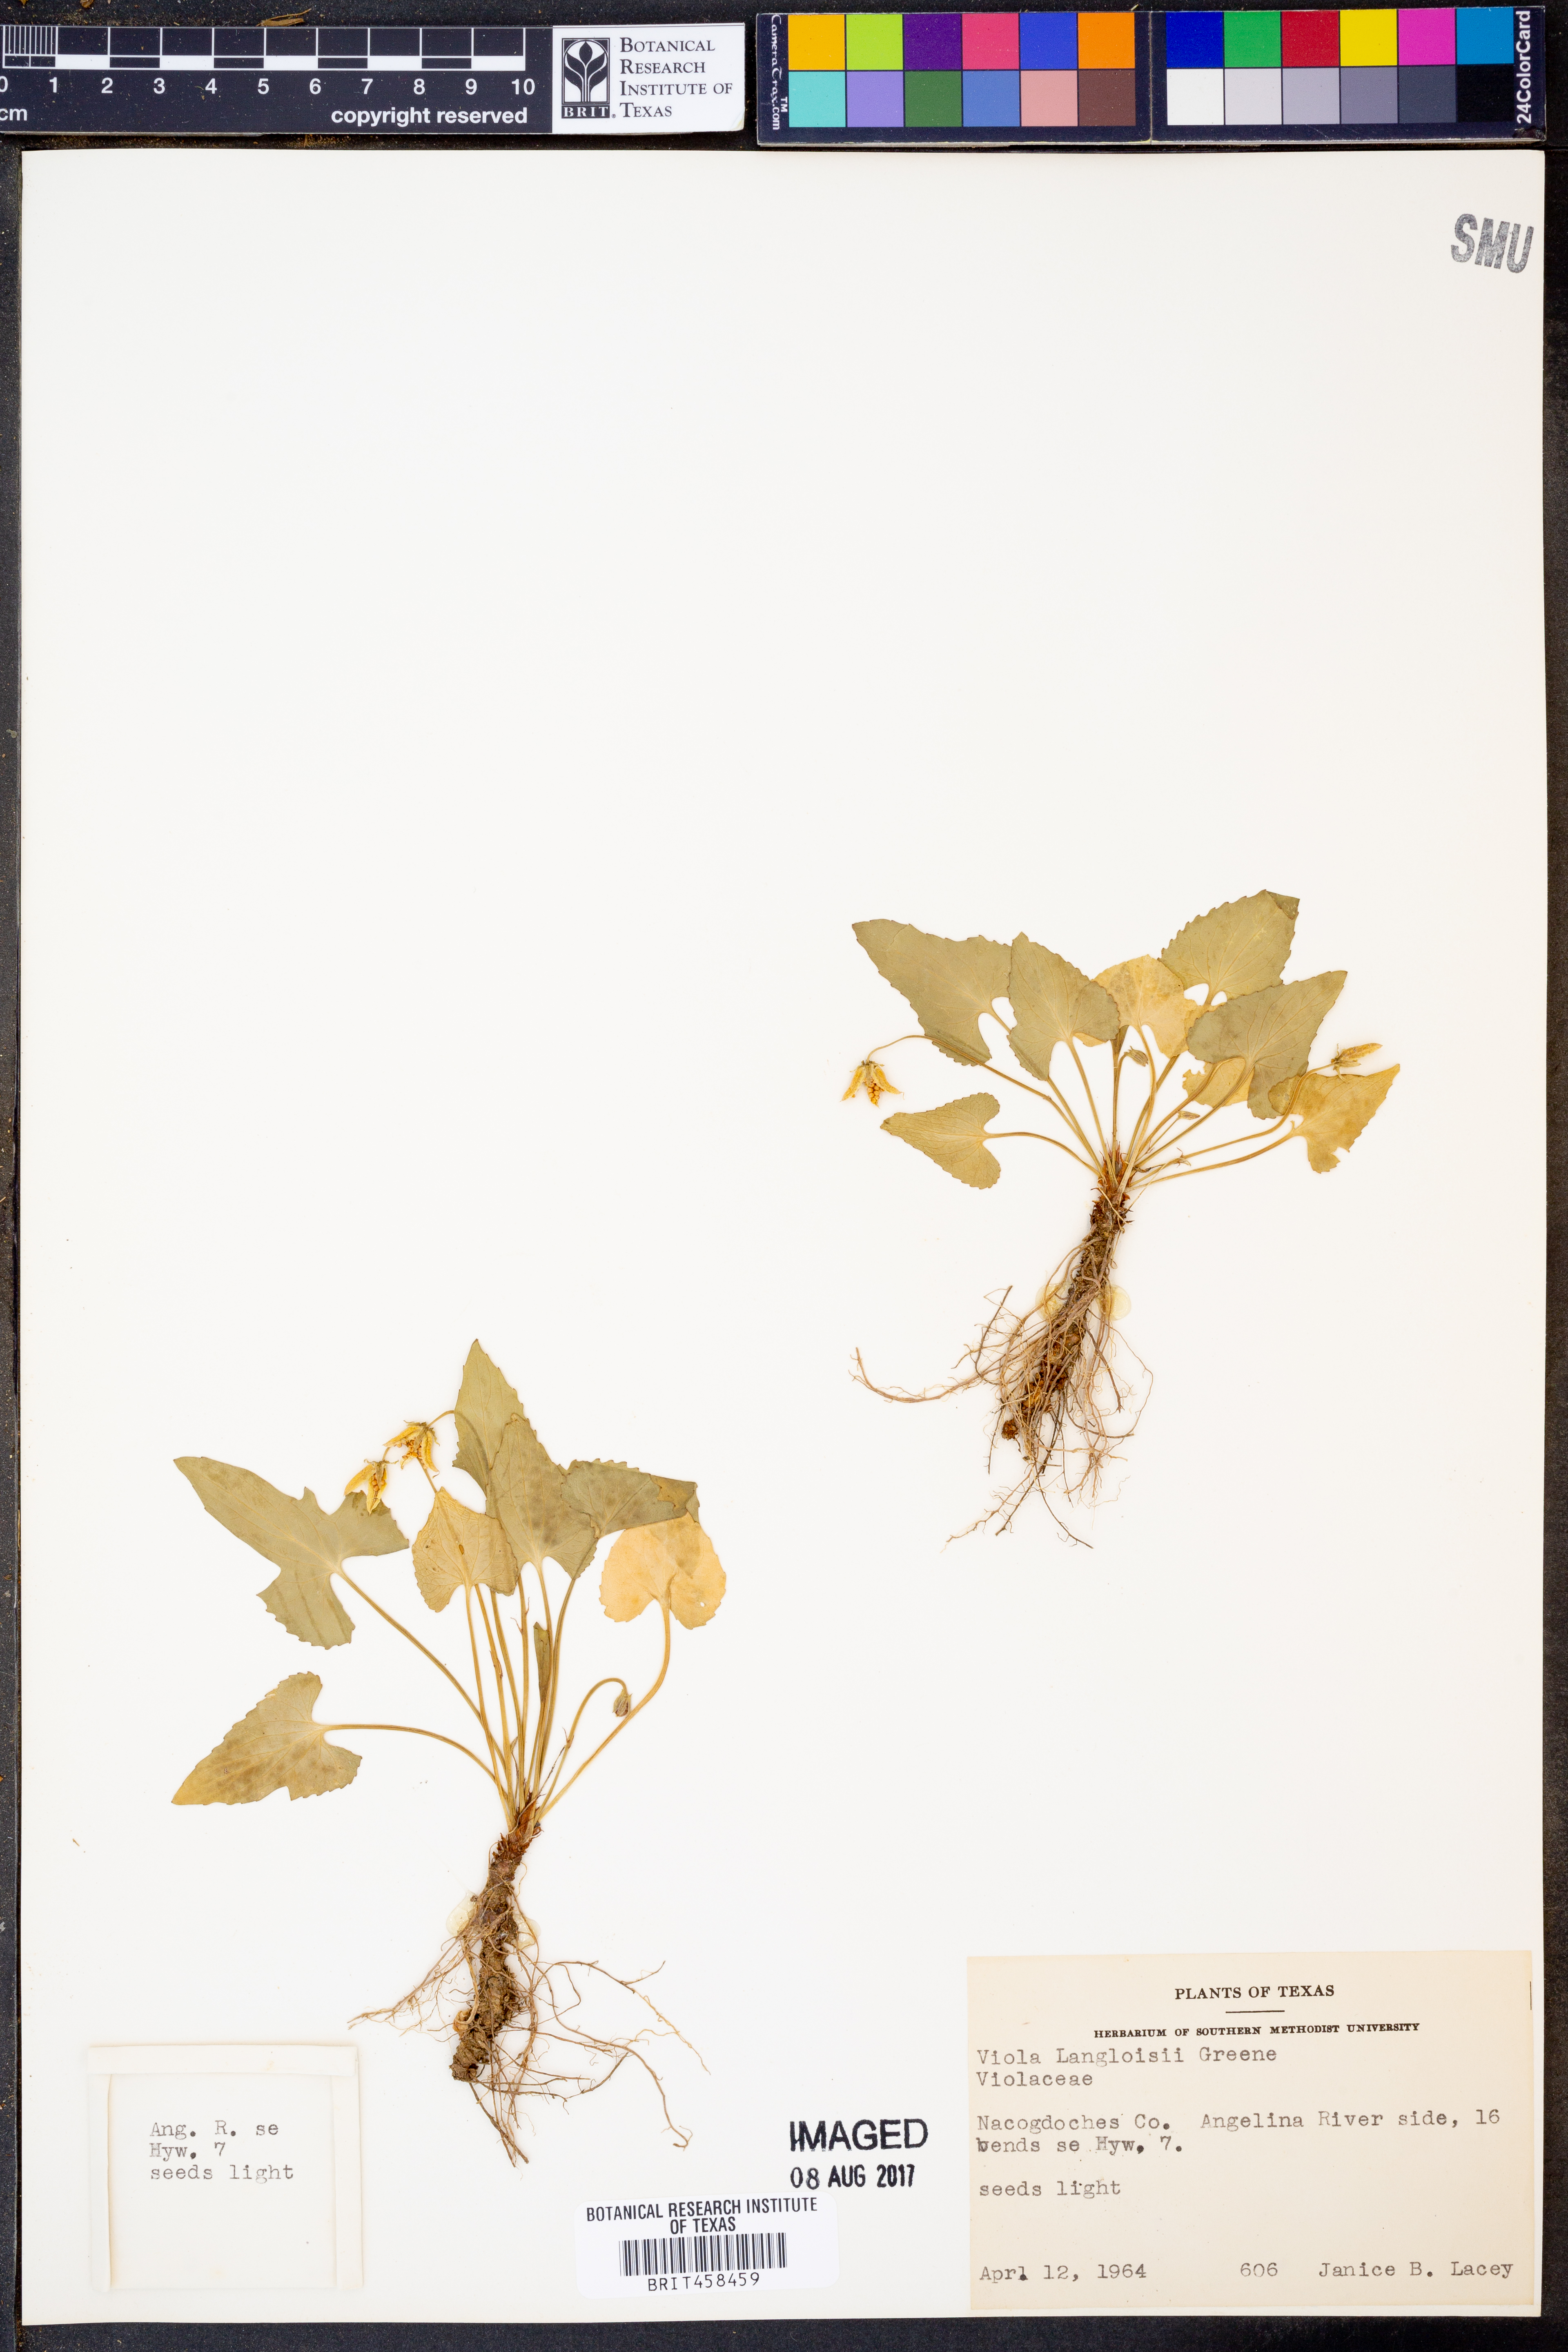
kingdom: Plantae
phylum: Tracheophyta
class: Magnoliopsida
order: Malpighiales
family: Violaceae
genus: Viola
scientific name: Viola langloisii
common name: Langlois' violet
